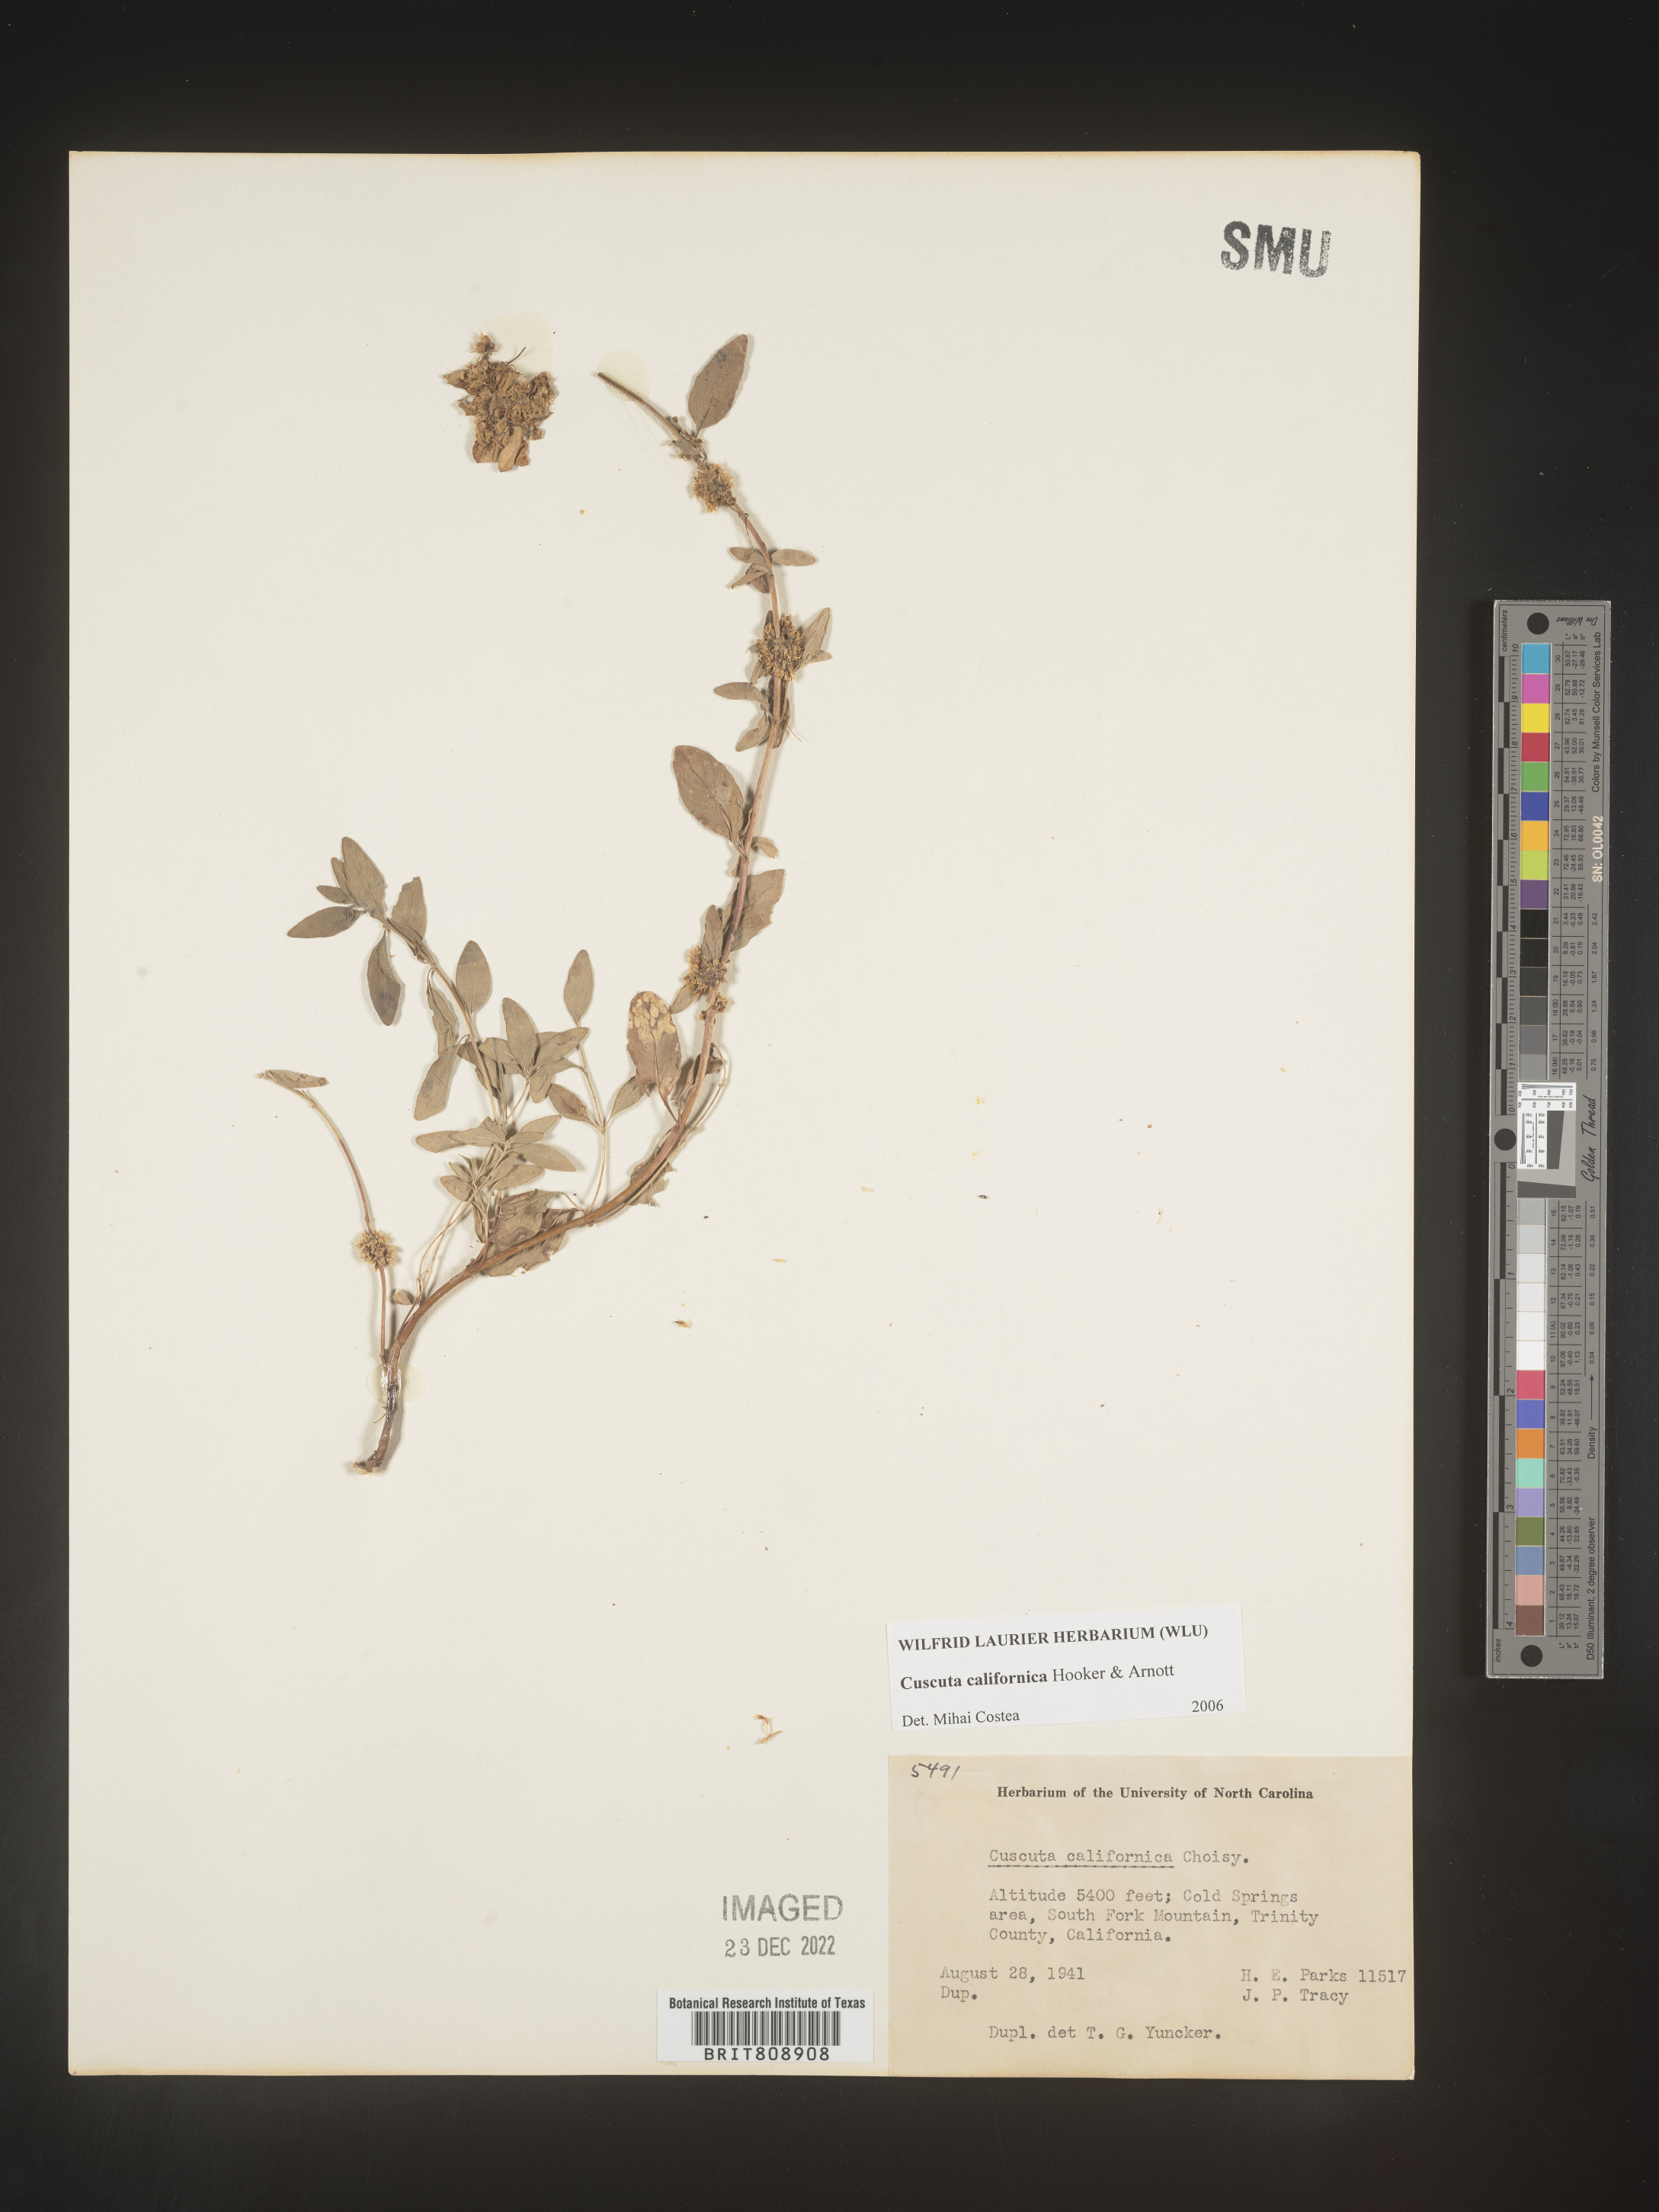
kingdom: Plantae
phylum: Tracheophyta
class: Magnoliopsida
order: Solanales
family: Convolvulaceae
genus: Cuscuta
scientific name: Cuscuta californica
